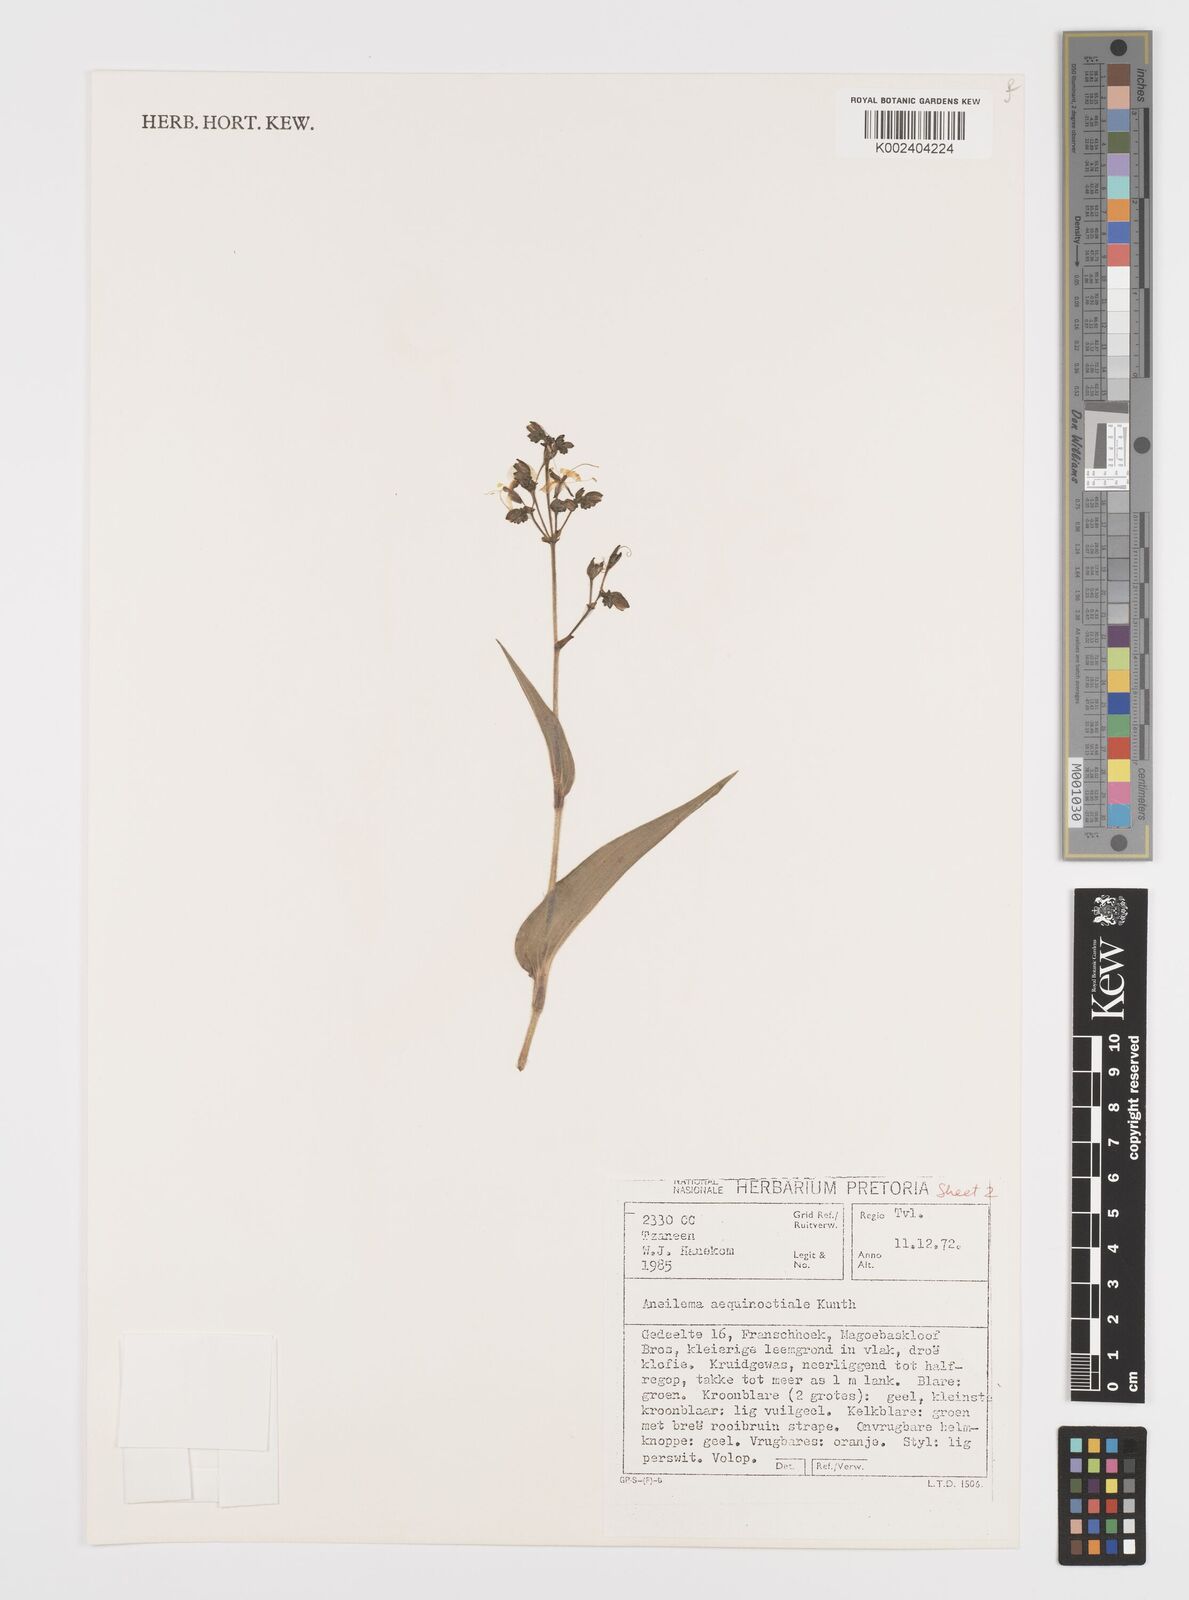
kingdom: Plantae
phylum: Tracheophyta
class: Liliopsida
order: Commelinales
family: Commelinaceae
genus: Aneilema
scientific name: Aneilema aequinoctiale
